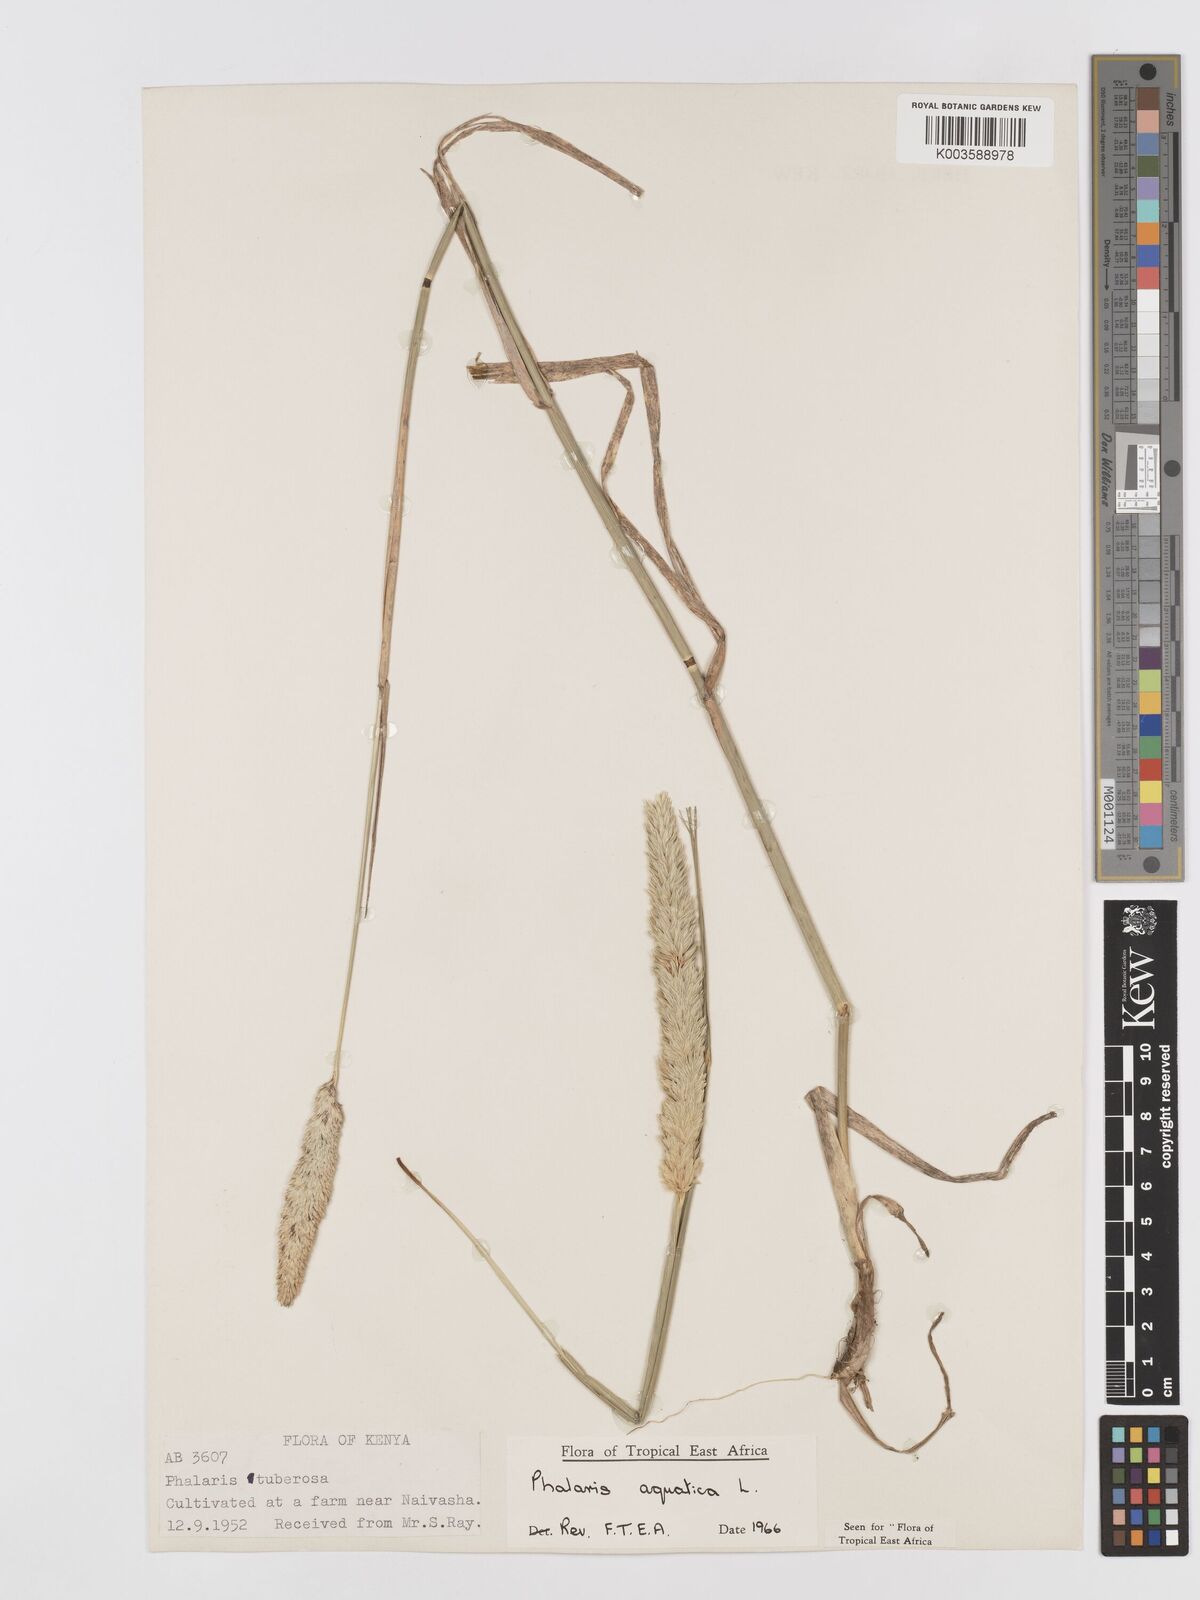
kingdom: Plantae
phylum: Tracheophyta
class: Liliopsida
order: Poales
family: Poaceae
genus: Phalaris
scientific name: Phalaris aquatica
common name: Bulbous canary-grass
